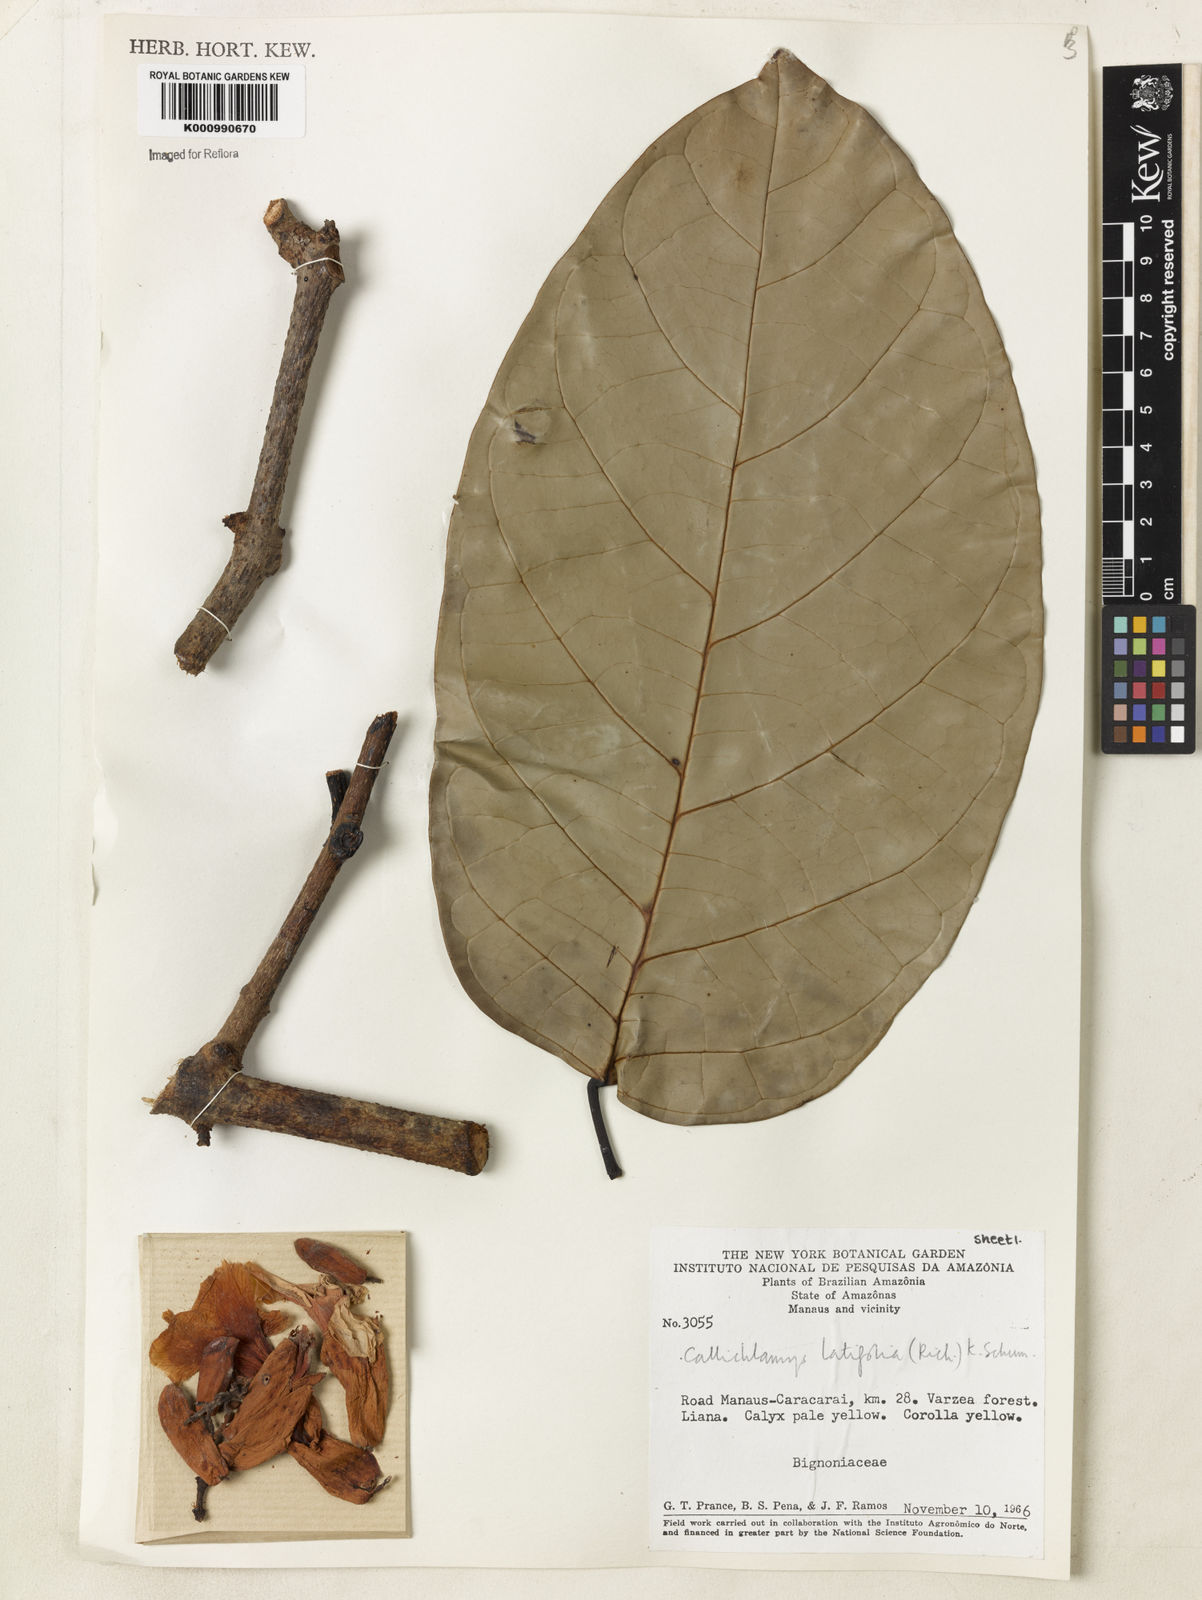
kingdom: Plantae
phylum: Tracheophyta
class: Magnoliopsida
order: Lamiales
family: Bignoniaceae
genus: Callichlamys
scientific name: Callichlamys latifolia
